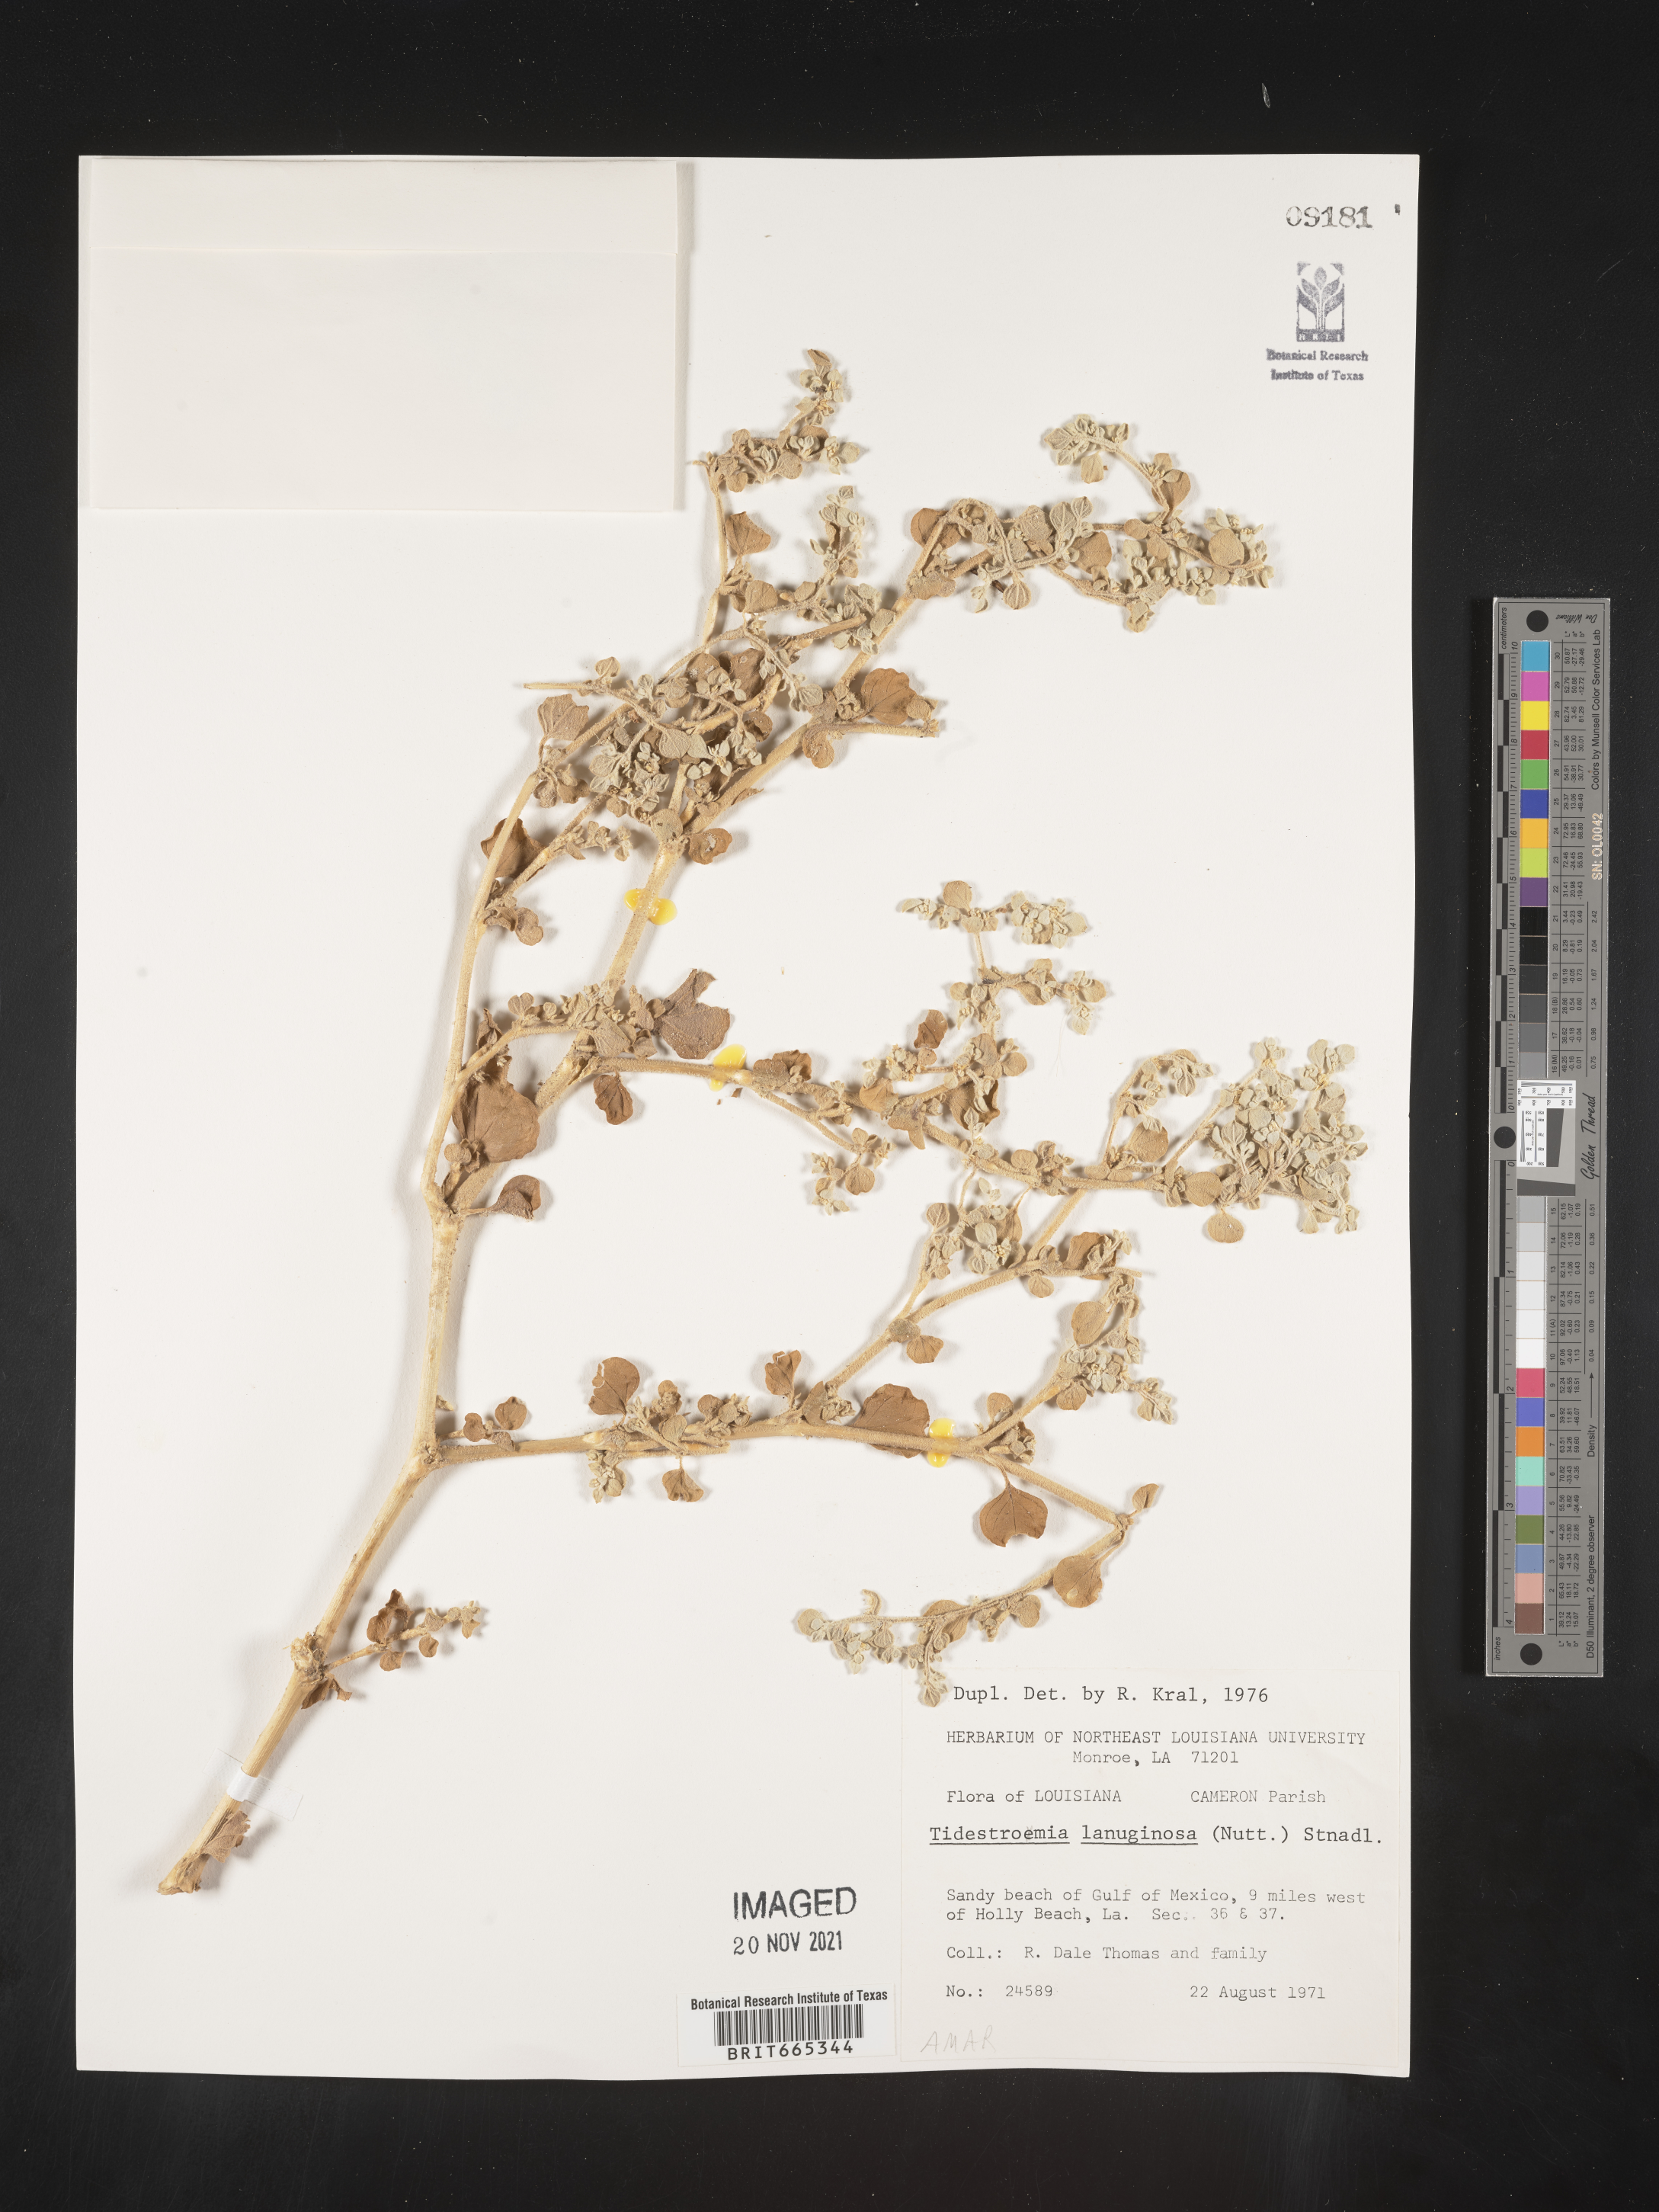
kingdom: Plantae
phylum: Tracheophyta
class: Magnoliopsida
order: Caryophyllales
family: Amaranthaceae
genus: Tidestromia
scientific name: Tidestromia lanuginosa
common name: Woolly tidestromia
